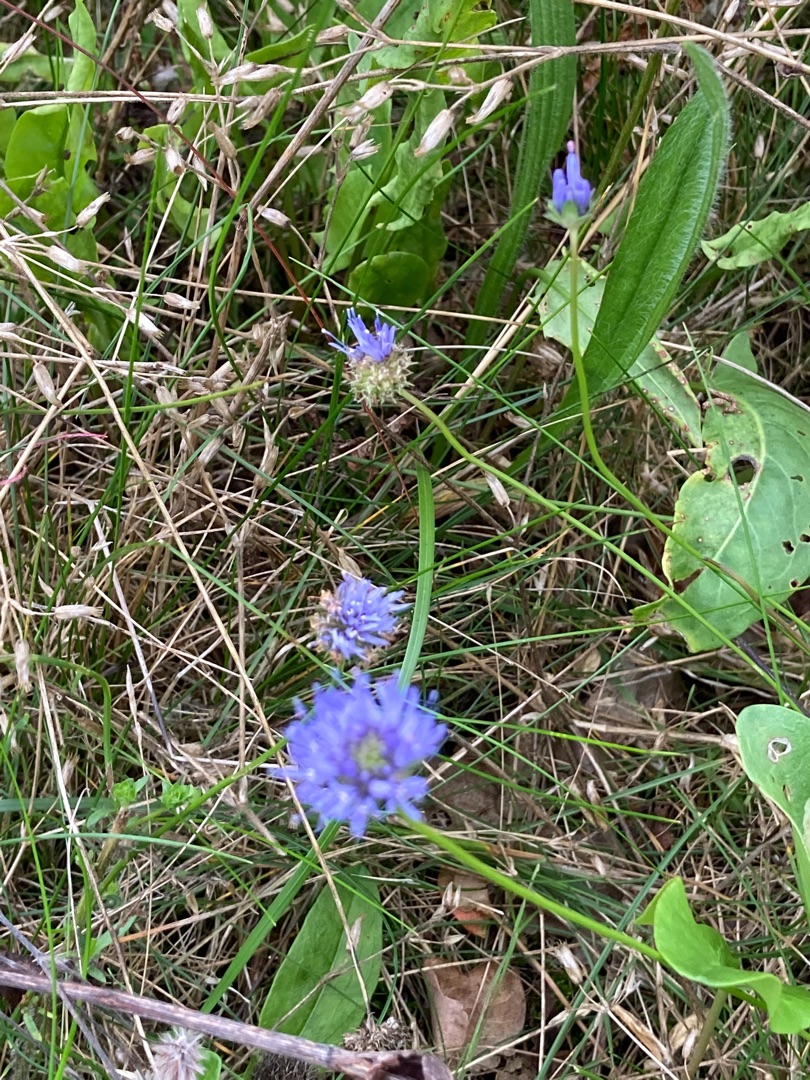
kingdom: Plantae
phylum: Tracheophyta
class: Magnoliopsida
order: Asterales
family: Campanulaceae
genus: Jasione
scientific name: Jasione montana
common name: Blåmunke
